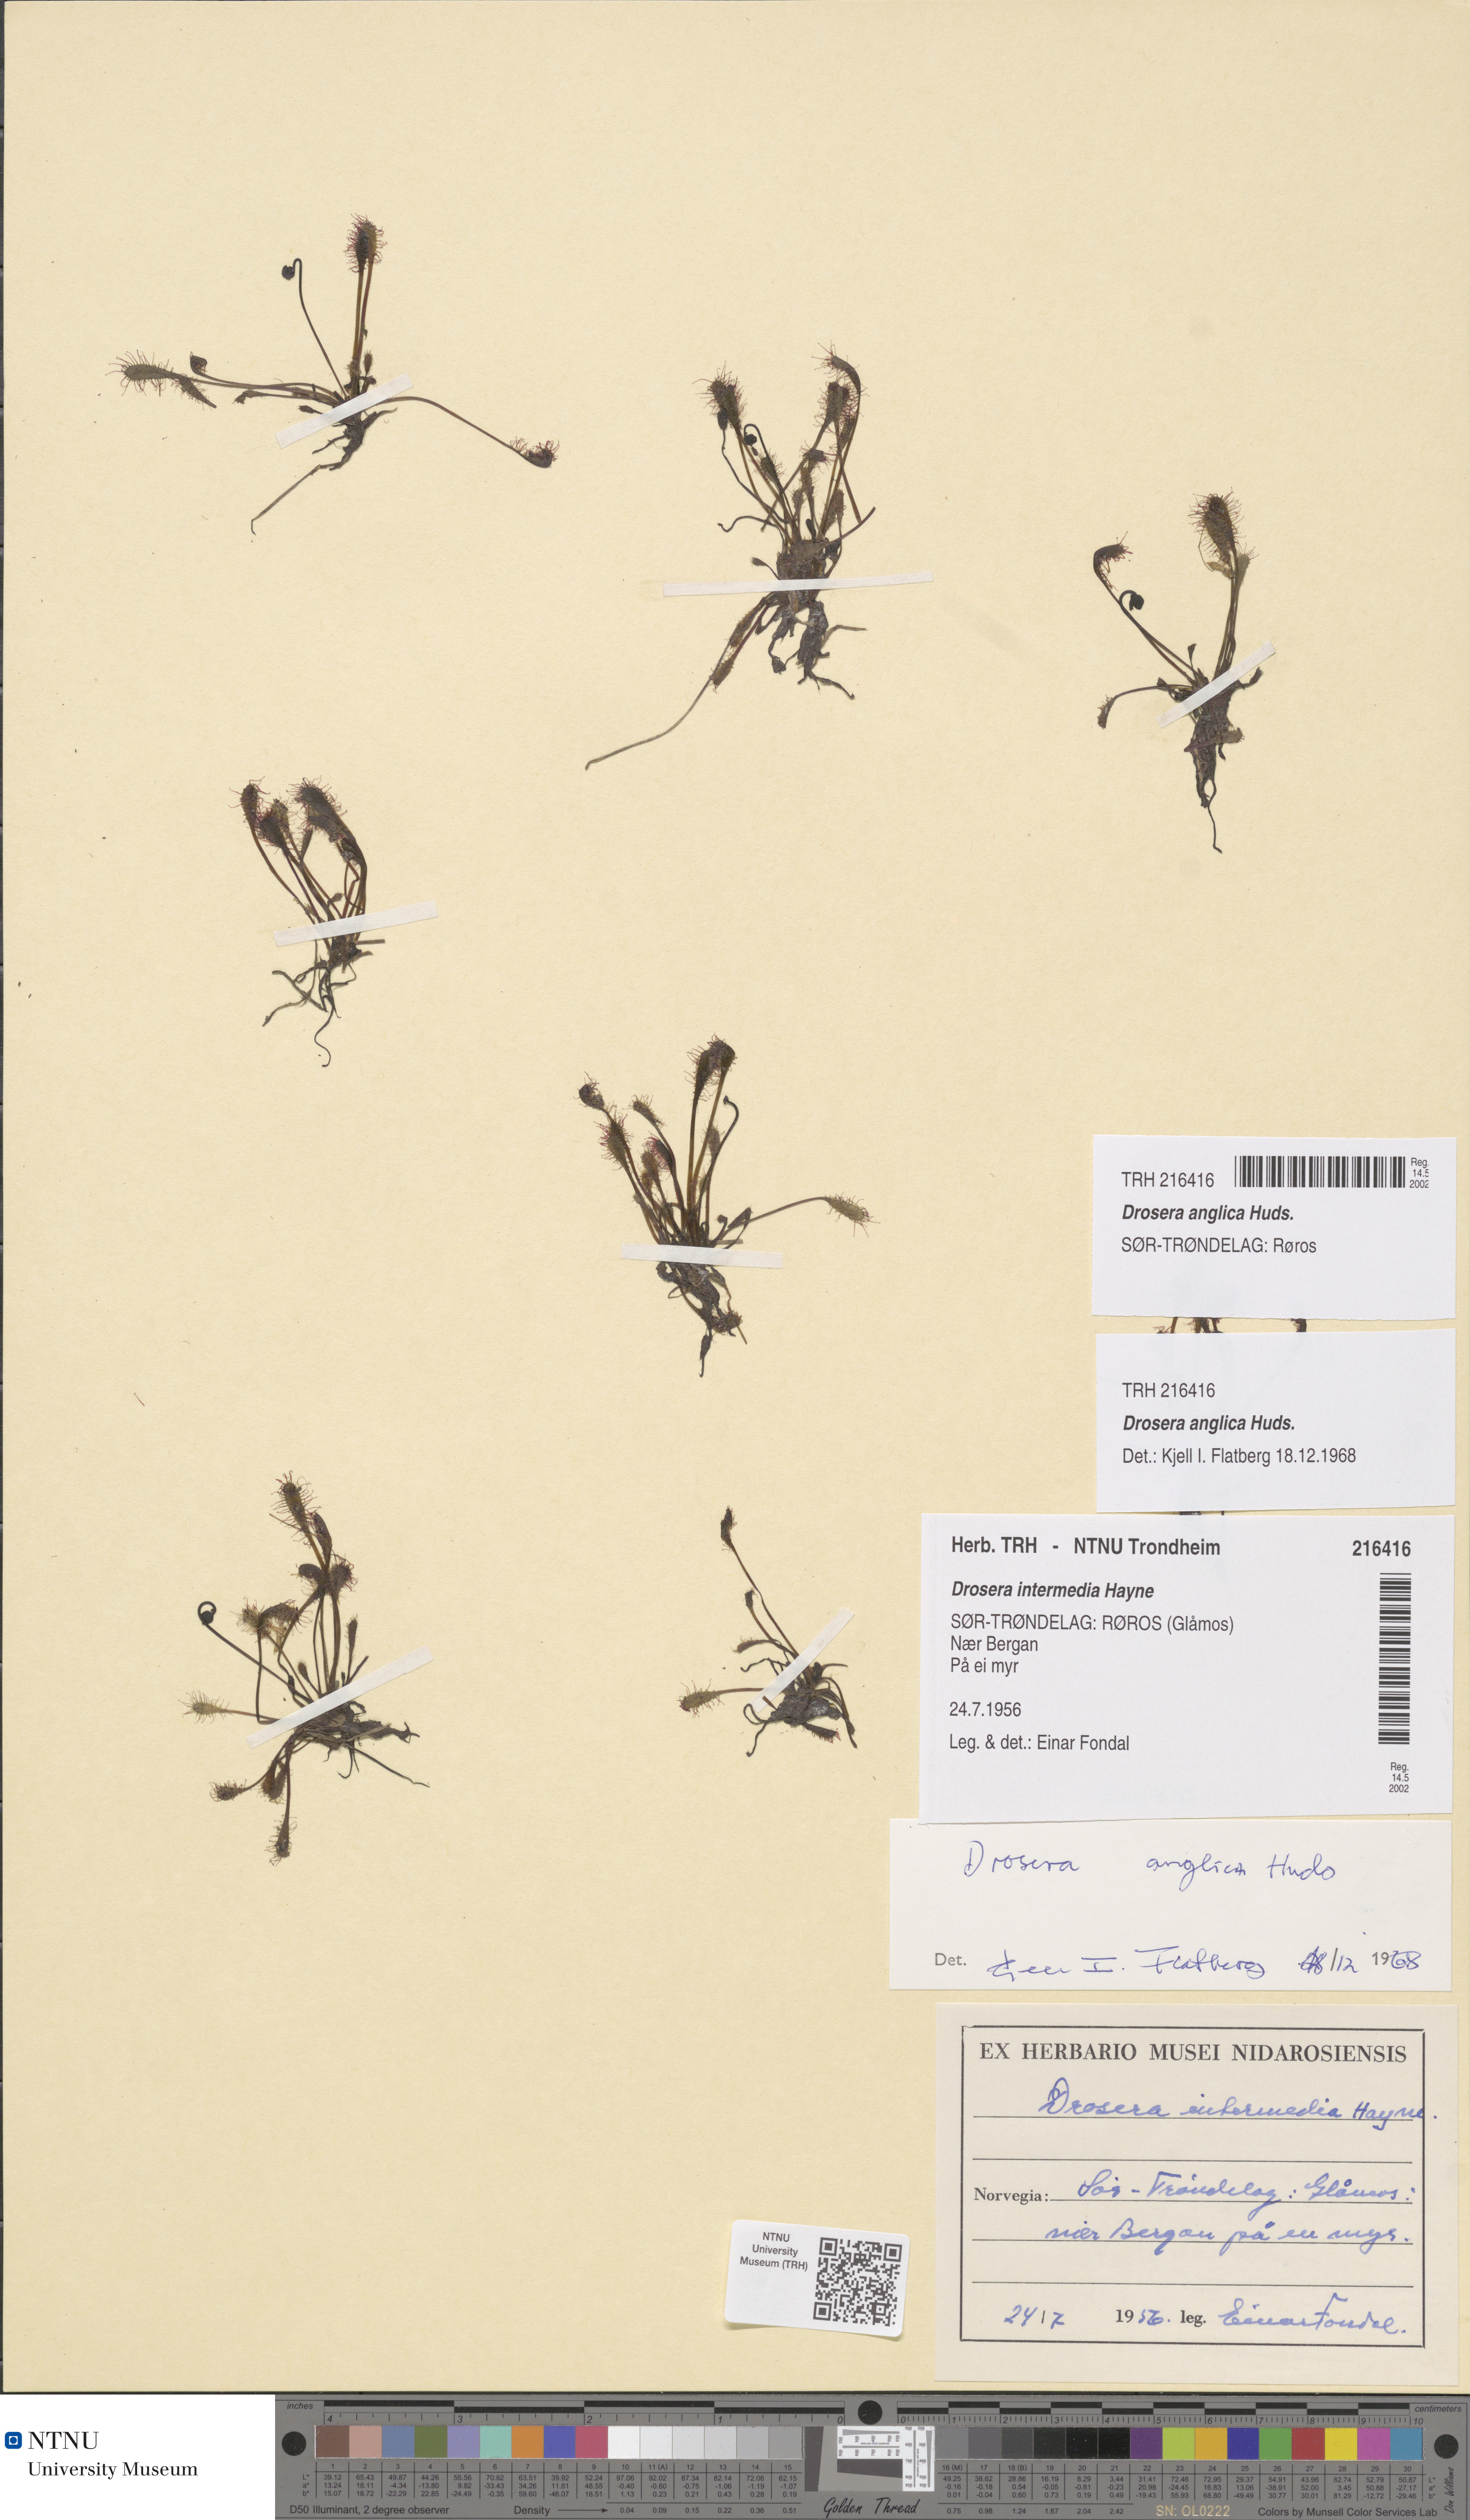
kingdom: Plantae
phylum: Tracheophyta
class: Magnoliopsida
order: Caryophyllales
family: Droseraceae
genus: Drosera
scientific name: Drosera anglica
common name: Great sundew
